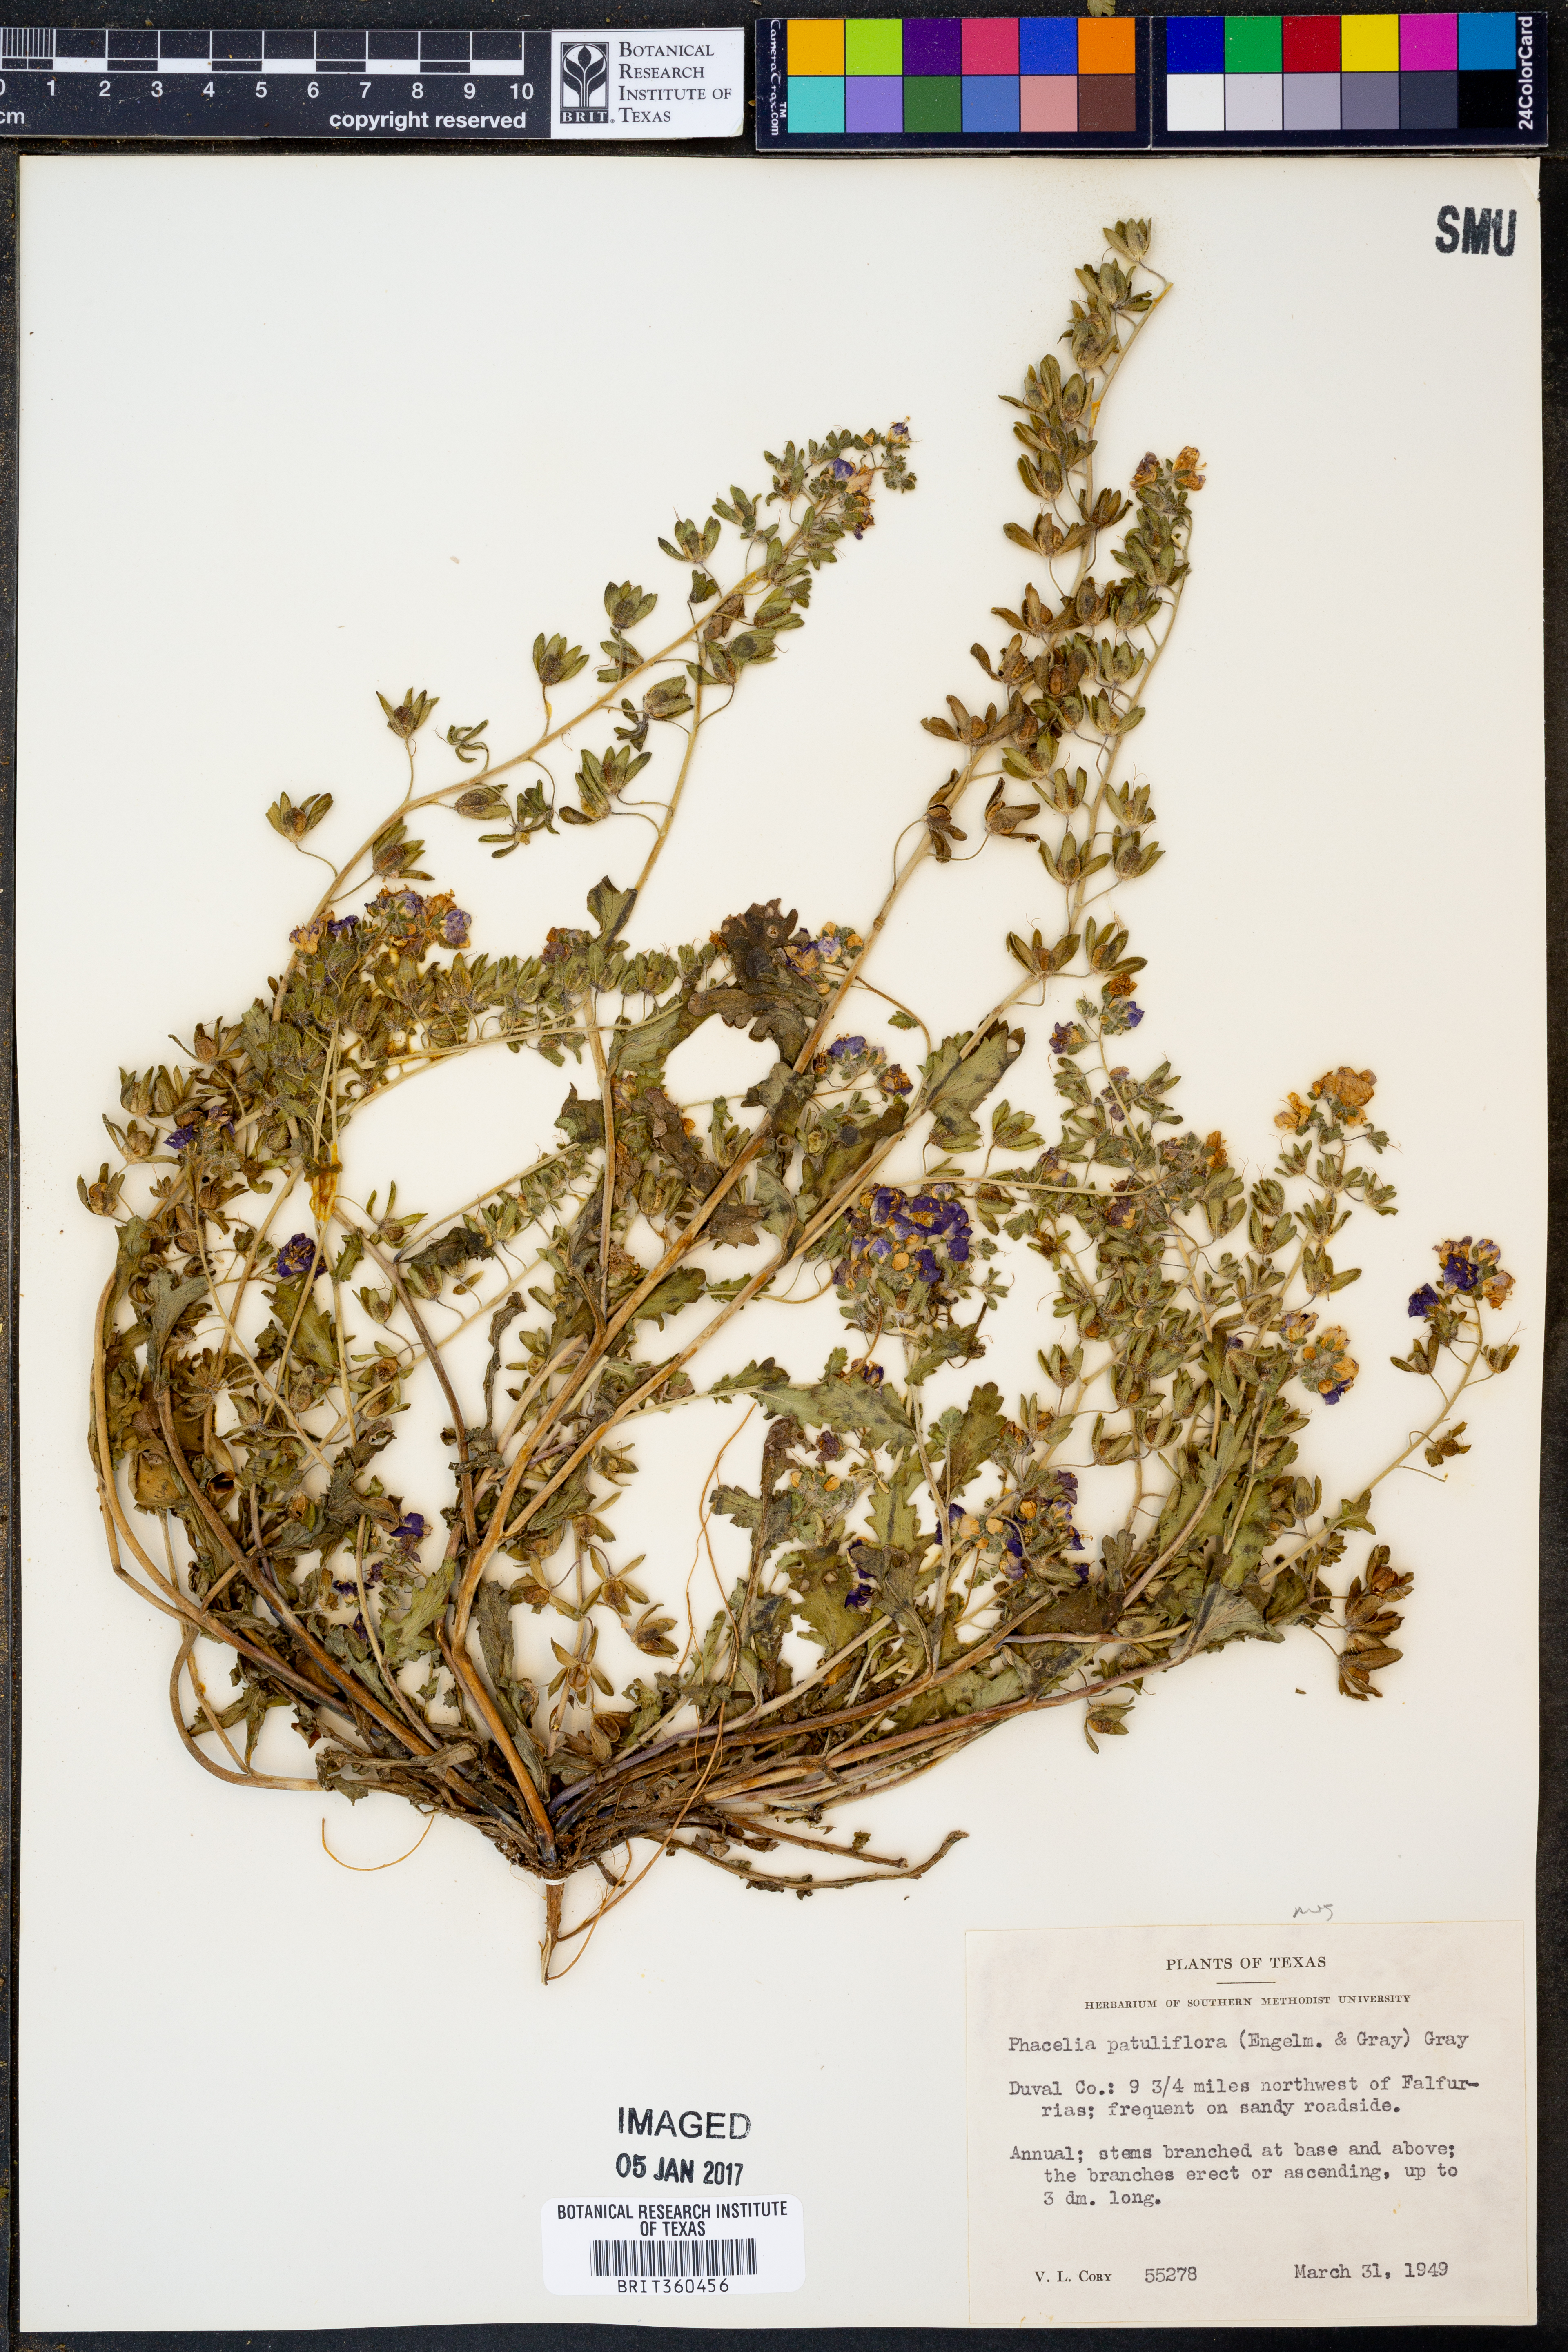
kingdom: Plantae
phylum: Tracheophyta
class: Magnoliopsida
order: Boraginales
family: Hydrophyllaceae
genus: Phacelia
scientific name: Phacelia patuliflora
